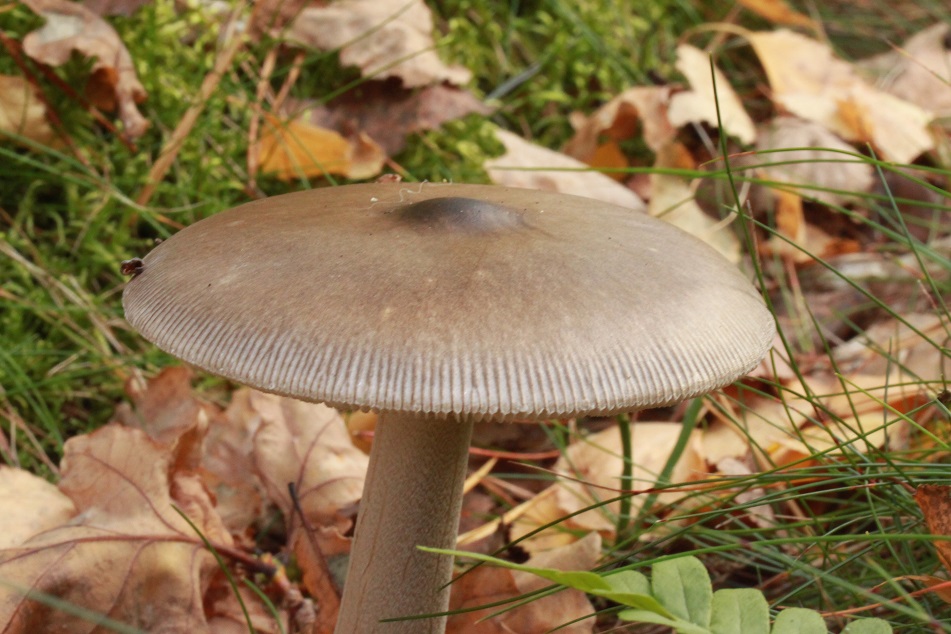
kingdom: Fungi
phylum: Basidiomycota
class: Agaricomycetes
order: Agaricales
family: Amanitaceae
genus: Amanita
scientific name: Amanita vaginata
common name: grå kam-fluesvamp
